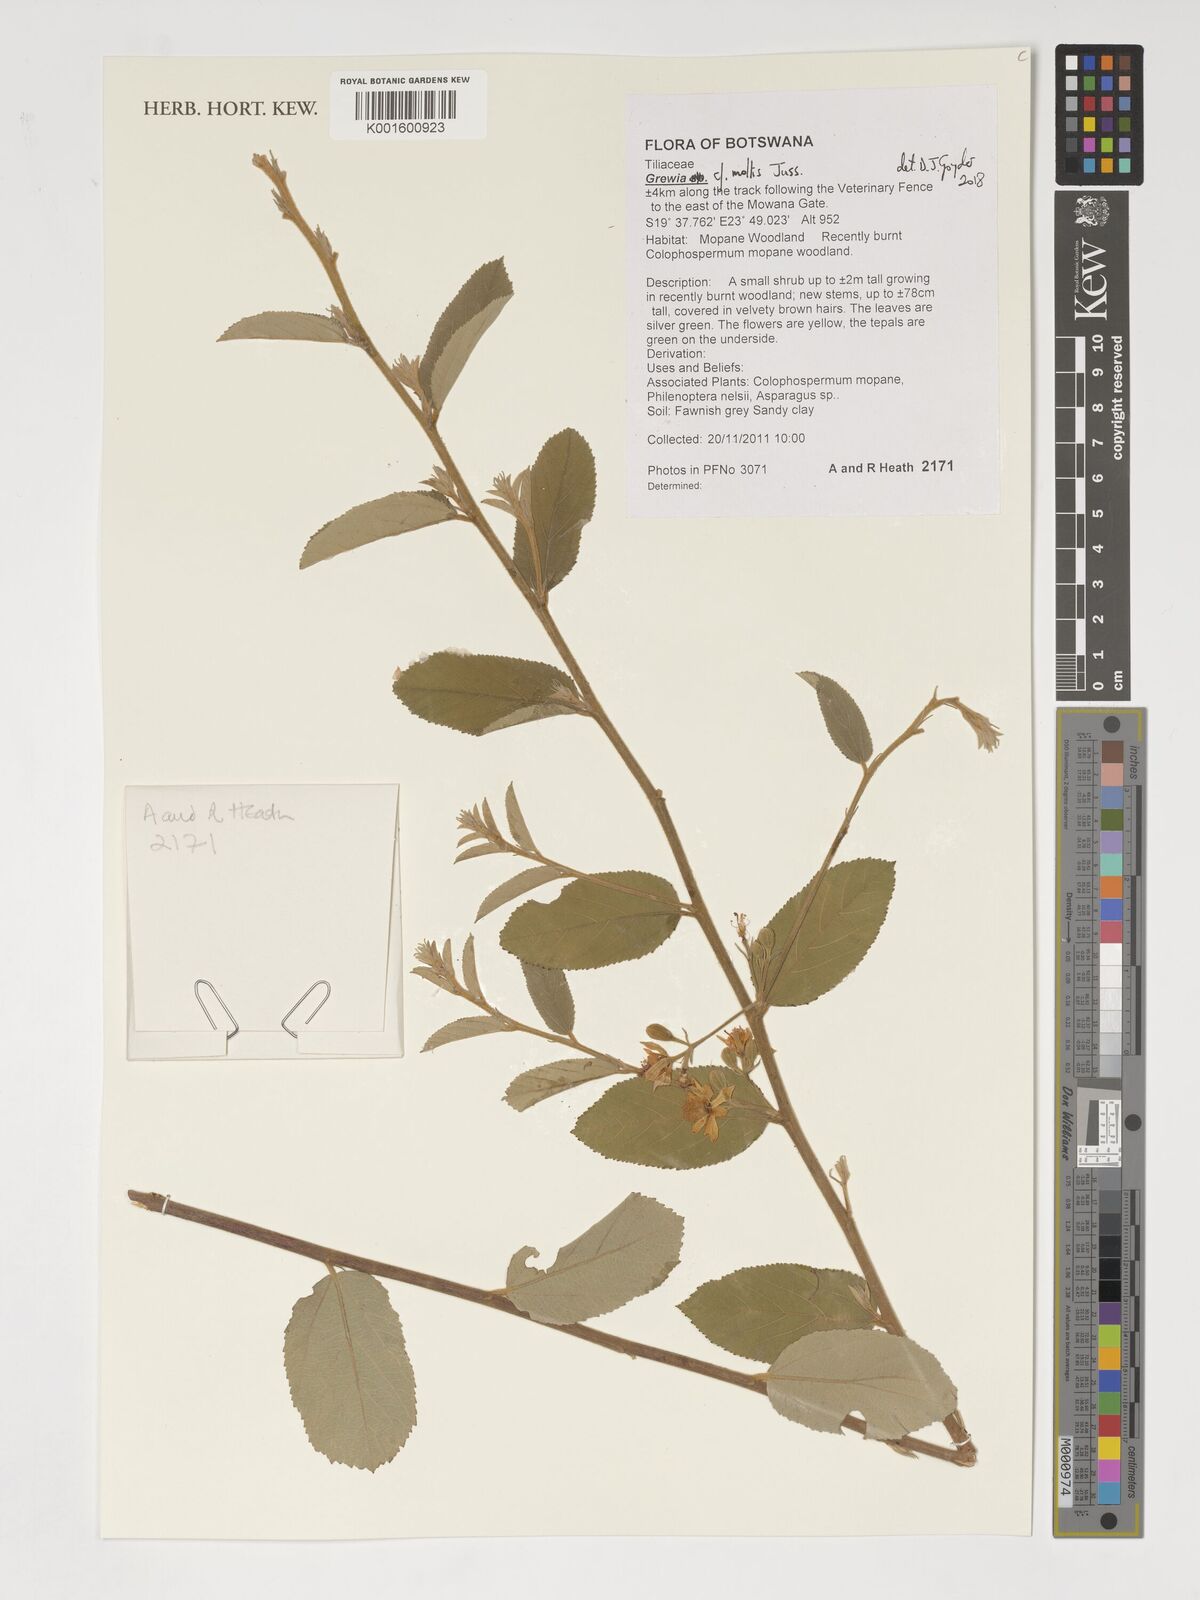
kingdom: Plantae
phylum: Tracheophyta
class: Magnoliopsida
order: Malvales
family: Malvaceae
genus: Grewia
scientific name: Grewia mollis
